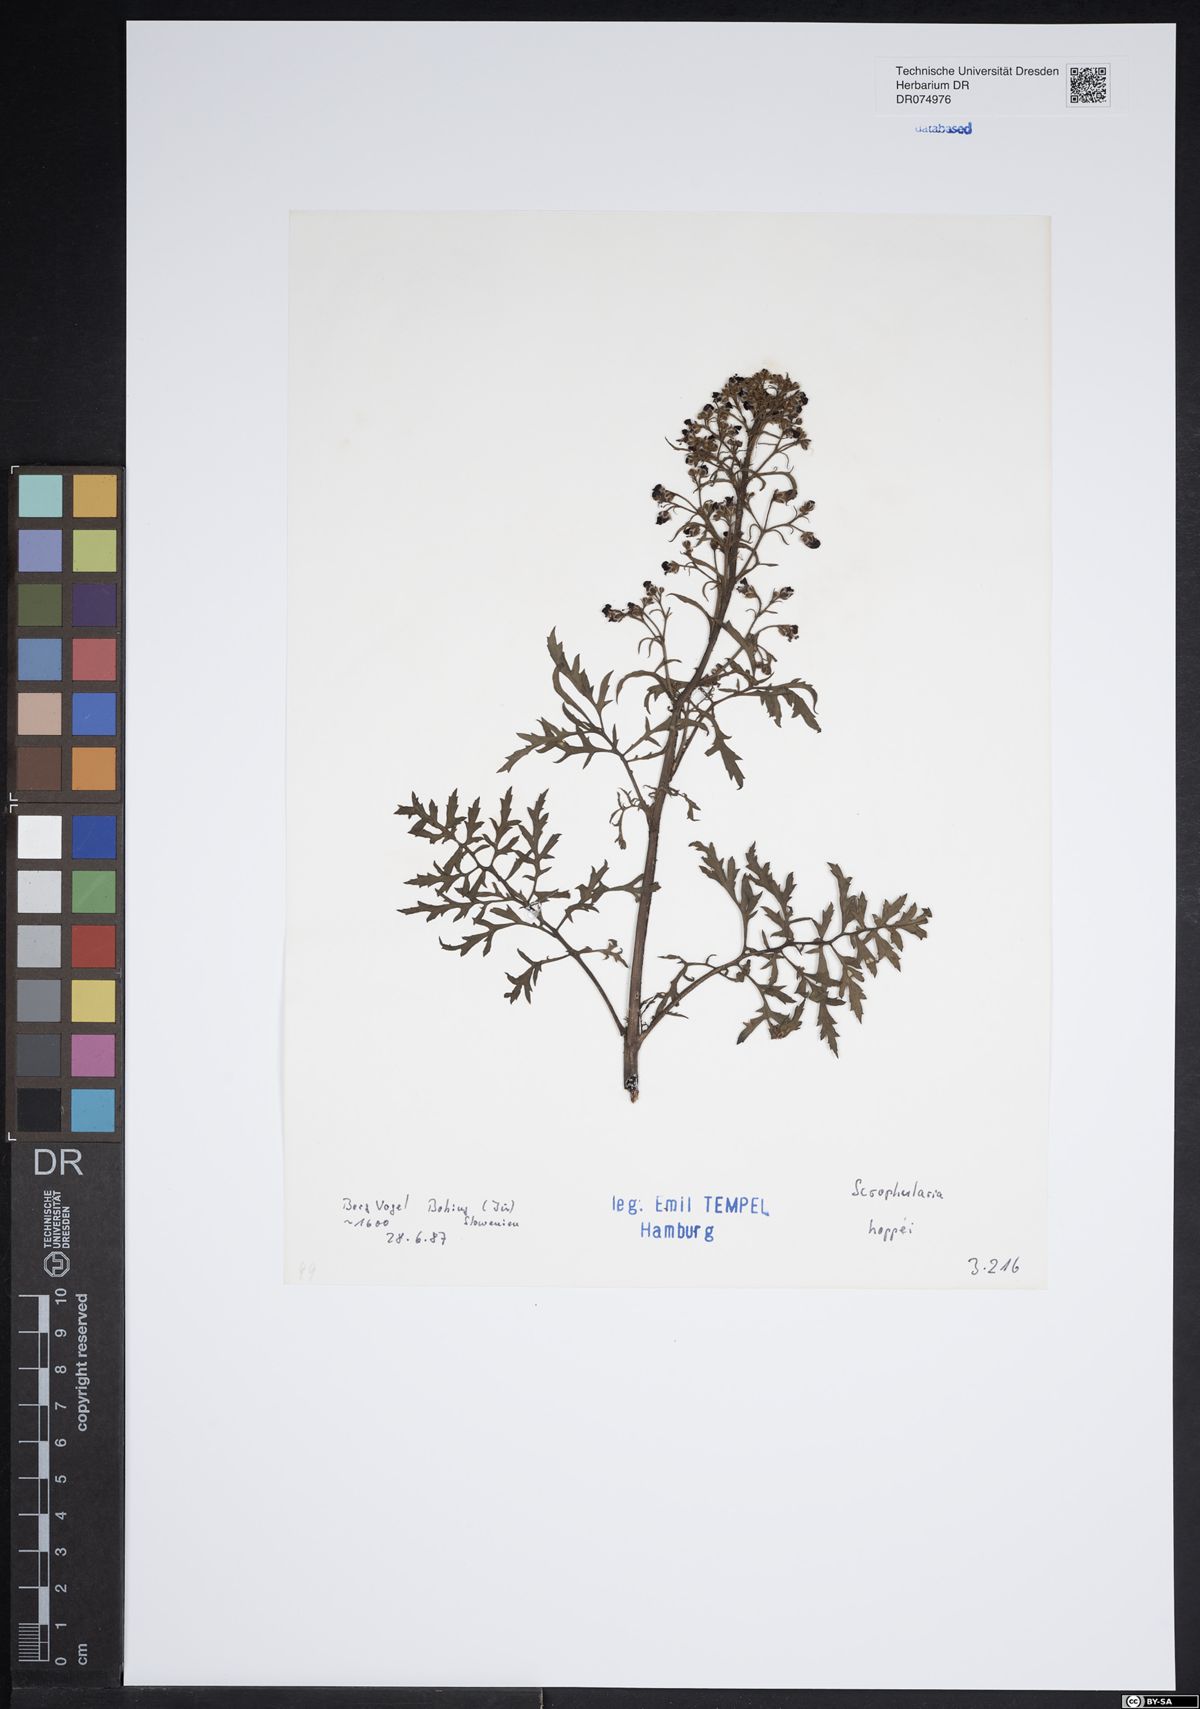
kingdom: Plantae
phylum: Tracheophyta
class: Magnoliopsida
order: Lamiales
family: Scrophulariaceae
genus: Scrophularia
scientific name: Scrophularia canina
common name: French figwort
